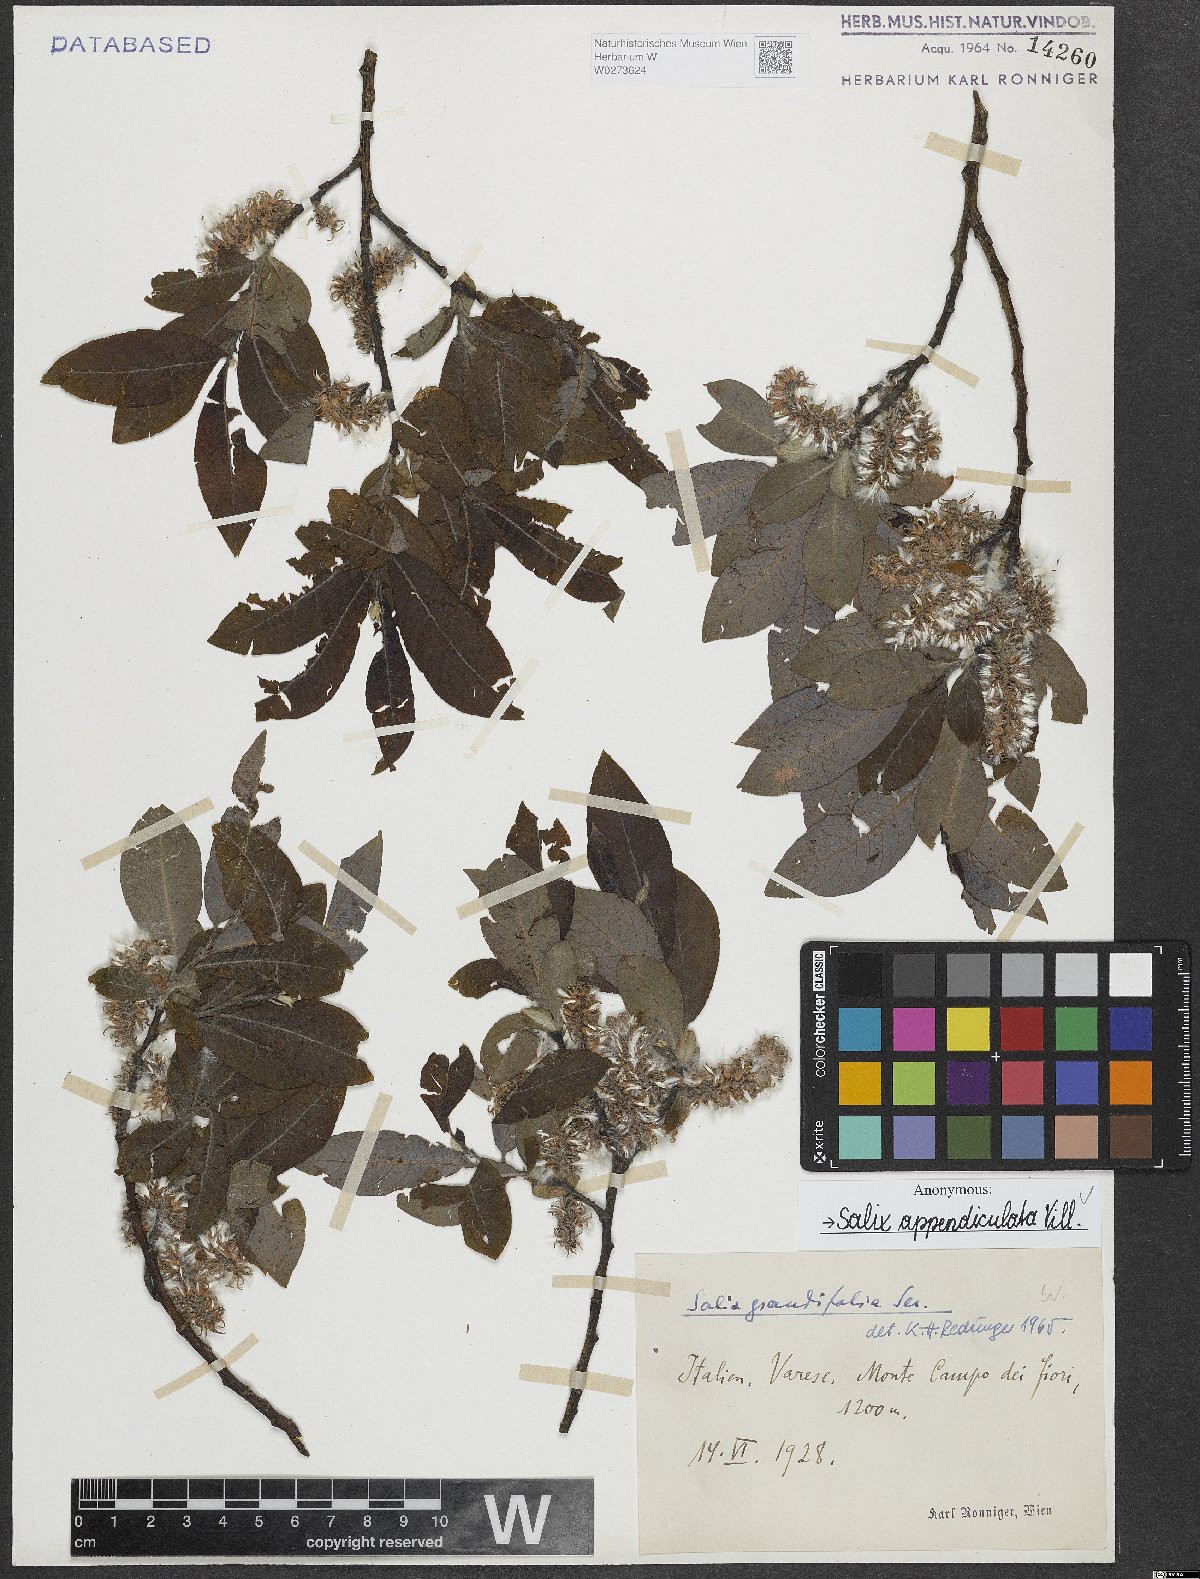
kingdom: Plantae
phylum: Tracheophyta
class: Magnoliopsida
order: Malpighiales
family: Salicaceae
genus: Salix
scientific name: Salix appendiculata
